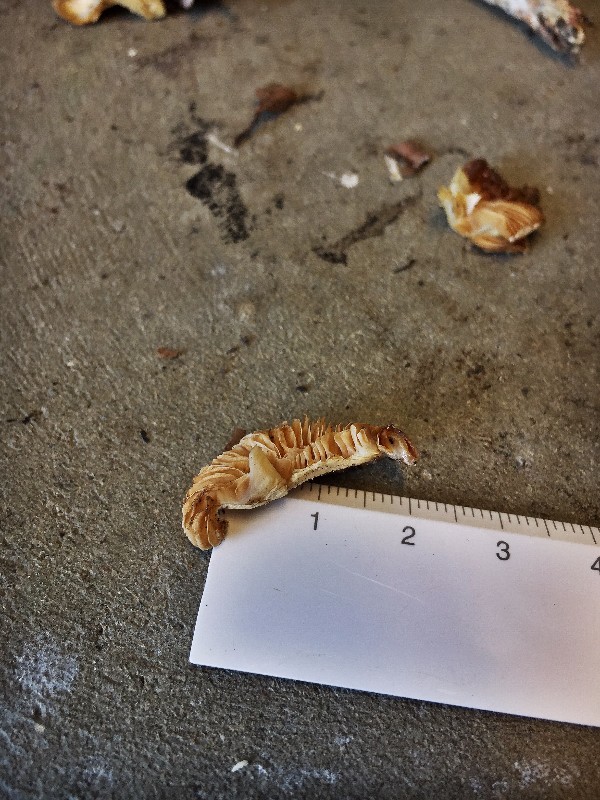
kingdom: Fungi
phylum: Basidiomycota
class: Agaricomycetes
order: Agaricales
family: Cortinariaceae
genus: Cortinarius
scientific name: Cortinarius
